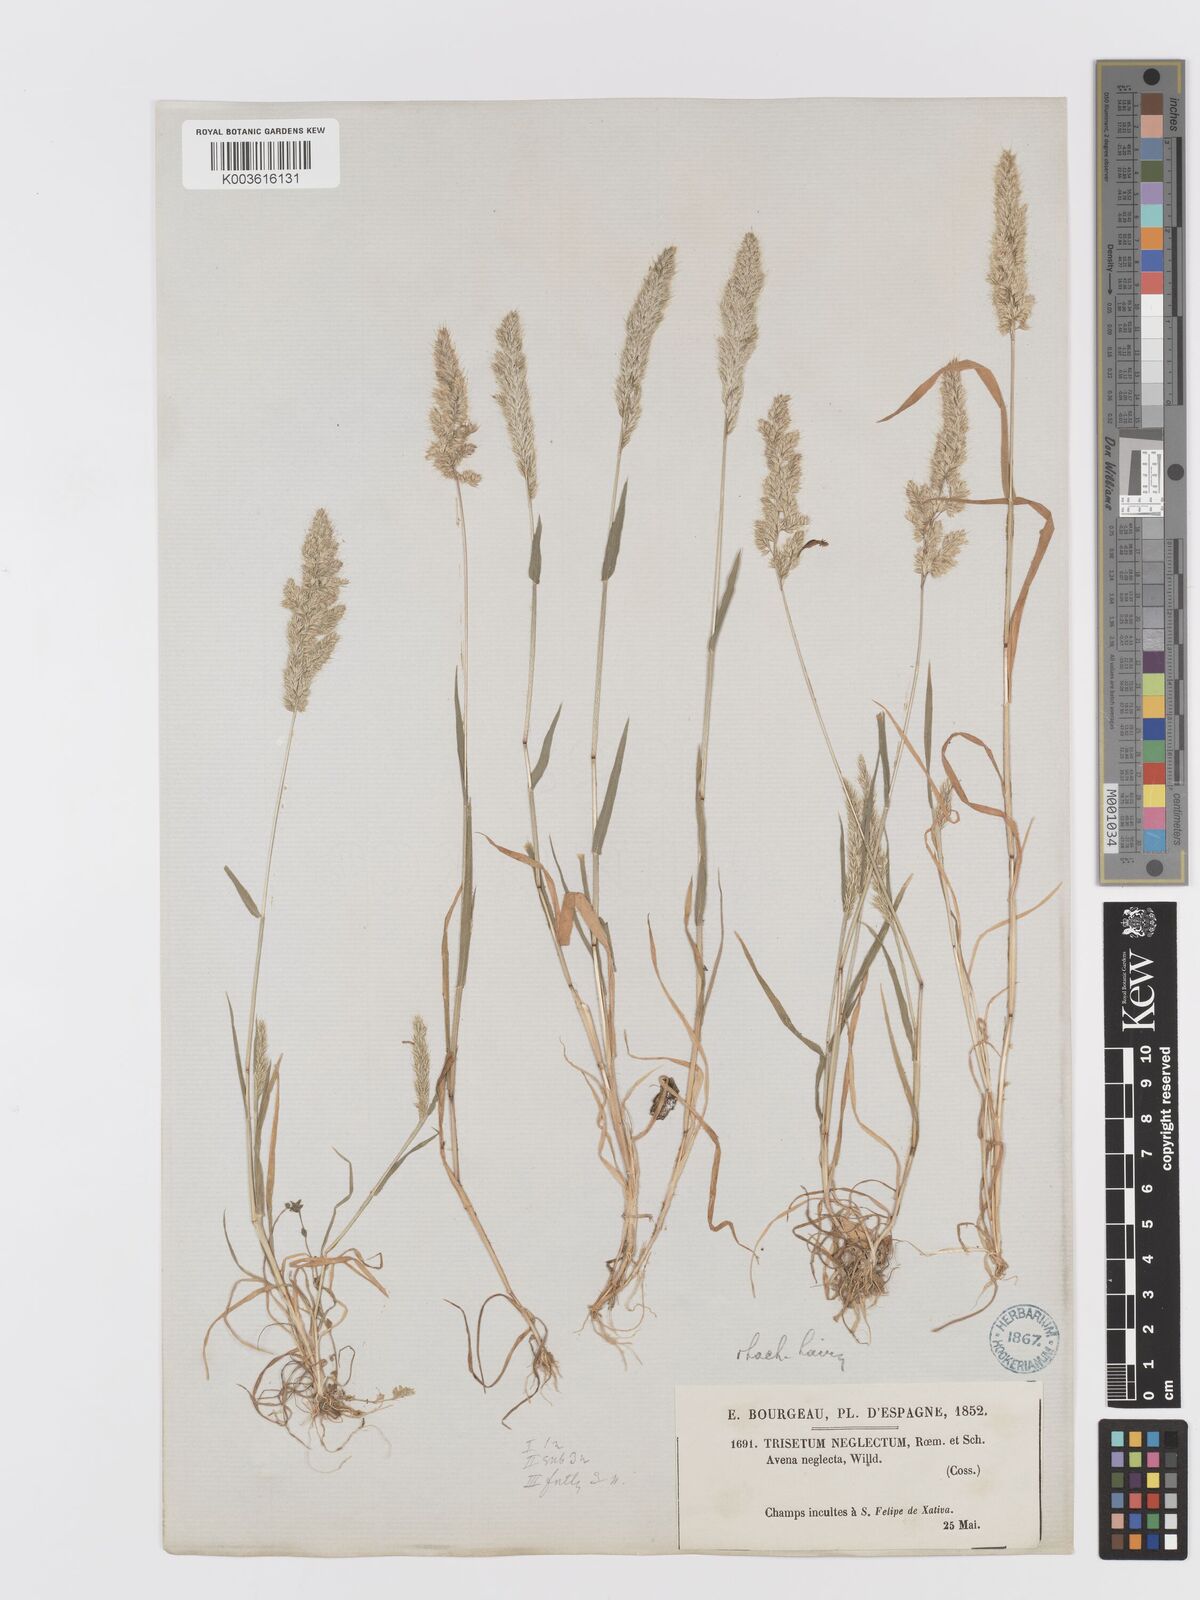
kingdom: Plantae
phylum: Tracheophyta
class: Liliopsida
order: Poales
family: Poaceae
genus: Trisetaria
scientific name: Trisetaria panicea
